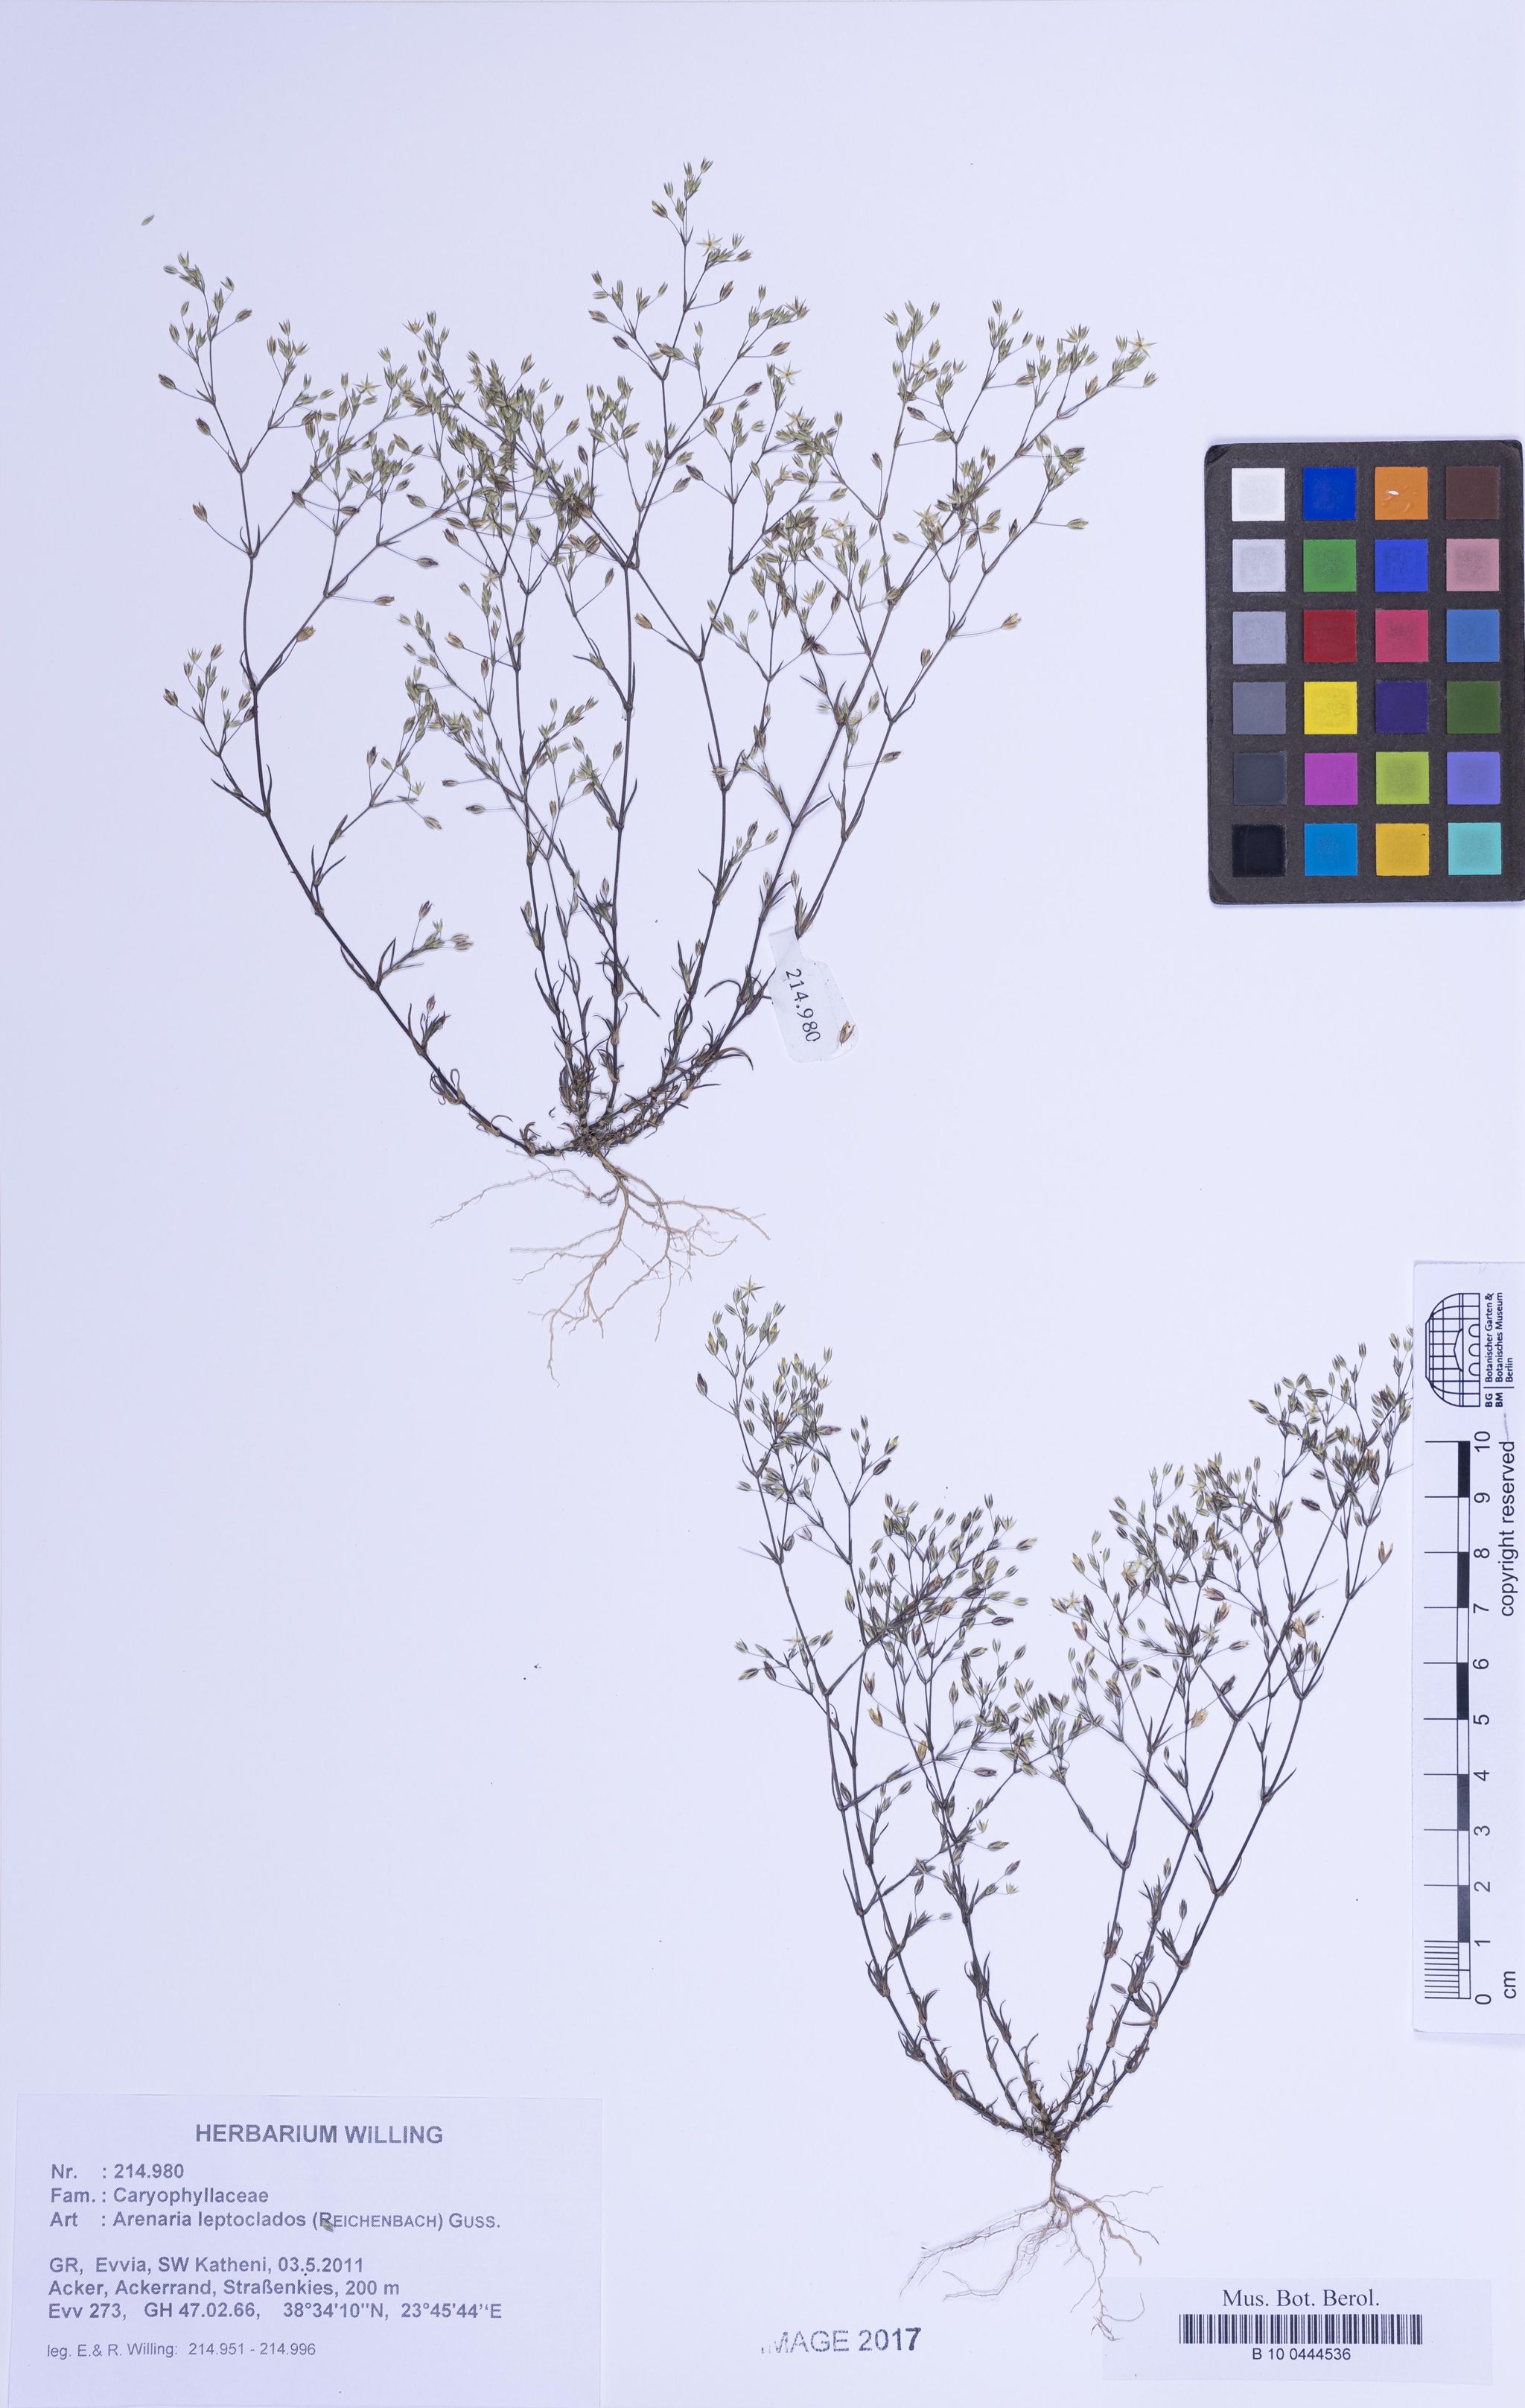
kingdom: Plantae
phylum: Tracheophyta
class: Magnoliopsida
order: Caryophyllales
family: Caryophyllaceae
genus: Arenaria
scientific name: Arenaria leptoclados
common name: Thyme-leaved sandwort
